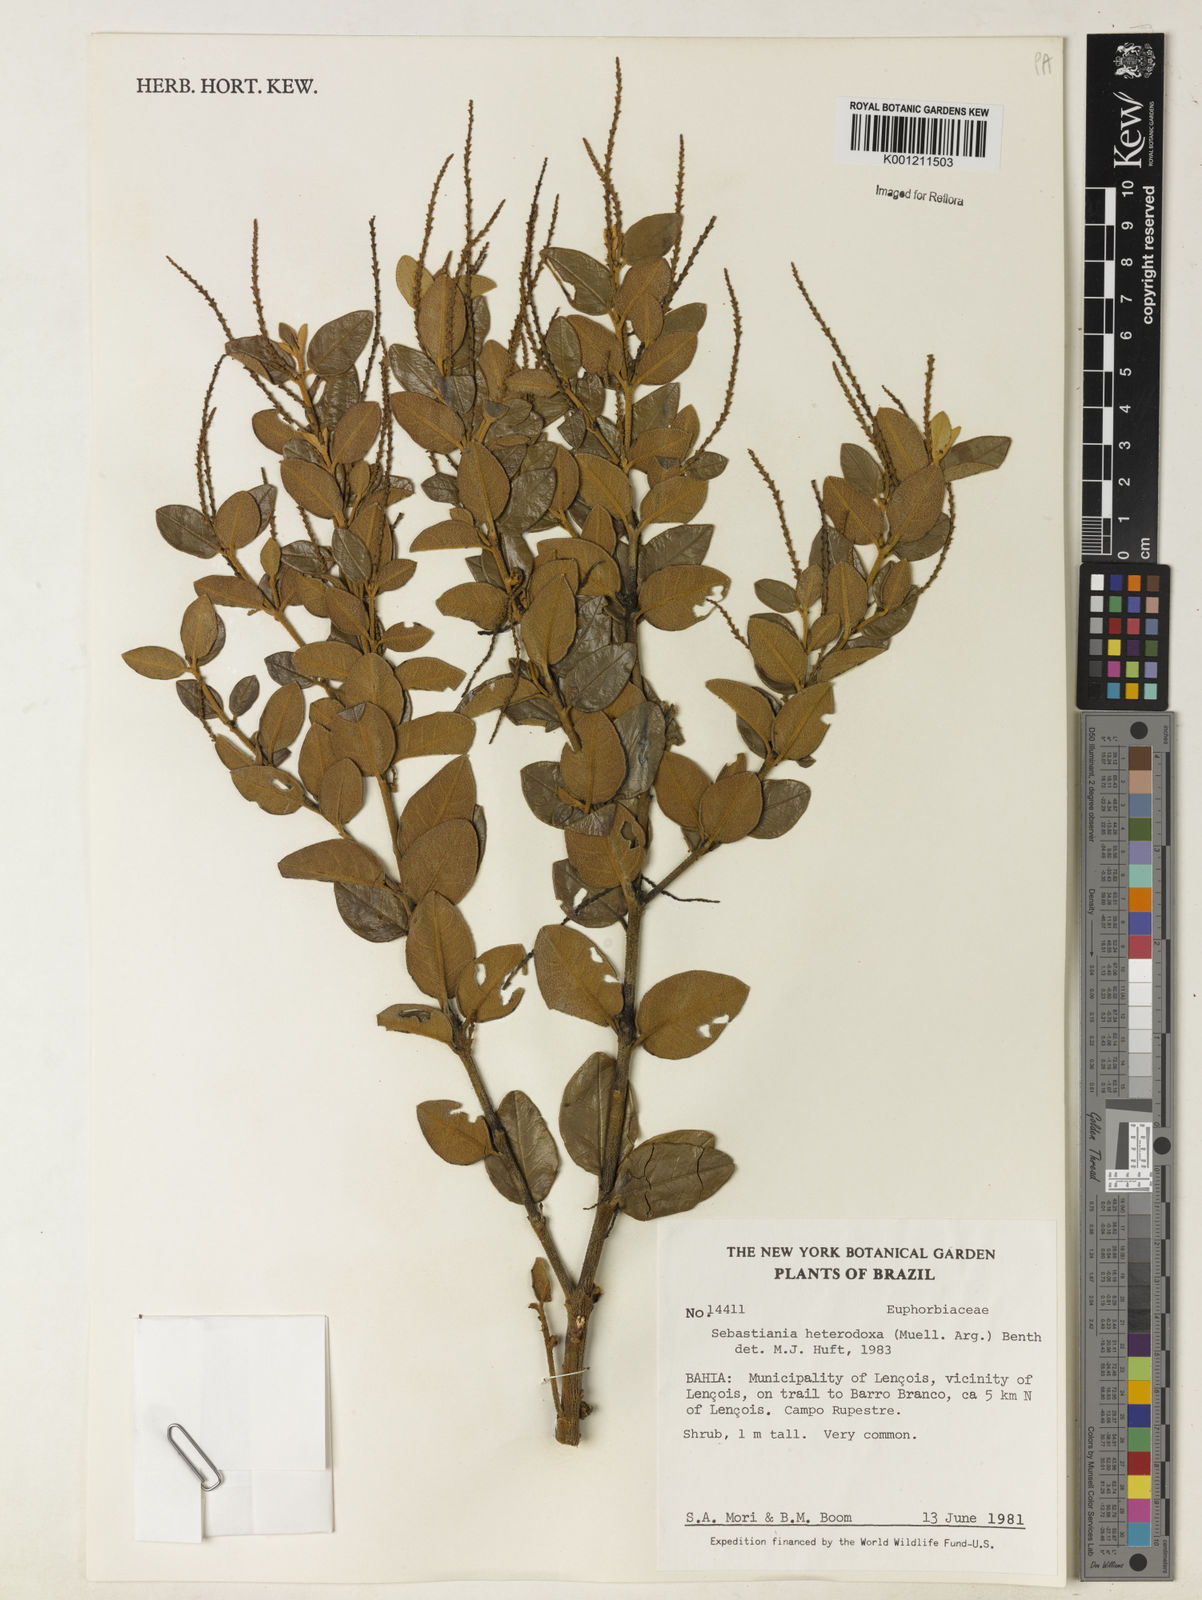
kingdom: Plantae
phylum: Tracheophyta
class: Magnoliopsida
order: Malpighiales
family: Euphorbiaceae
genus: Microstachys
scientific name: Microstachys
